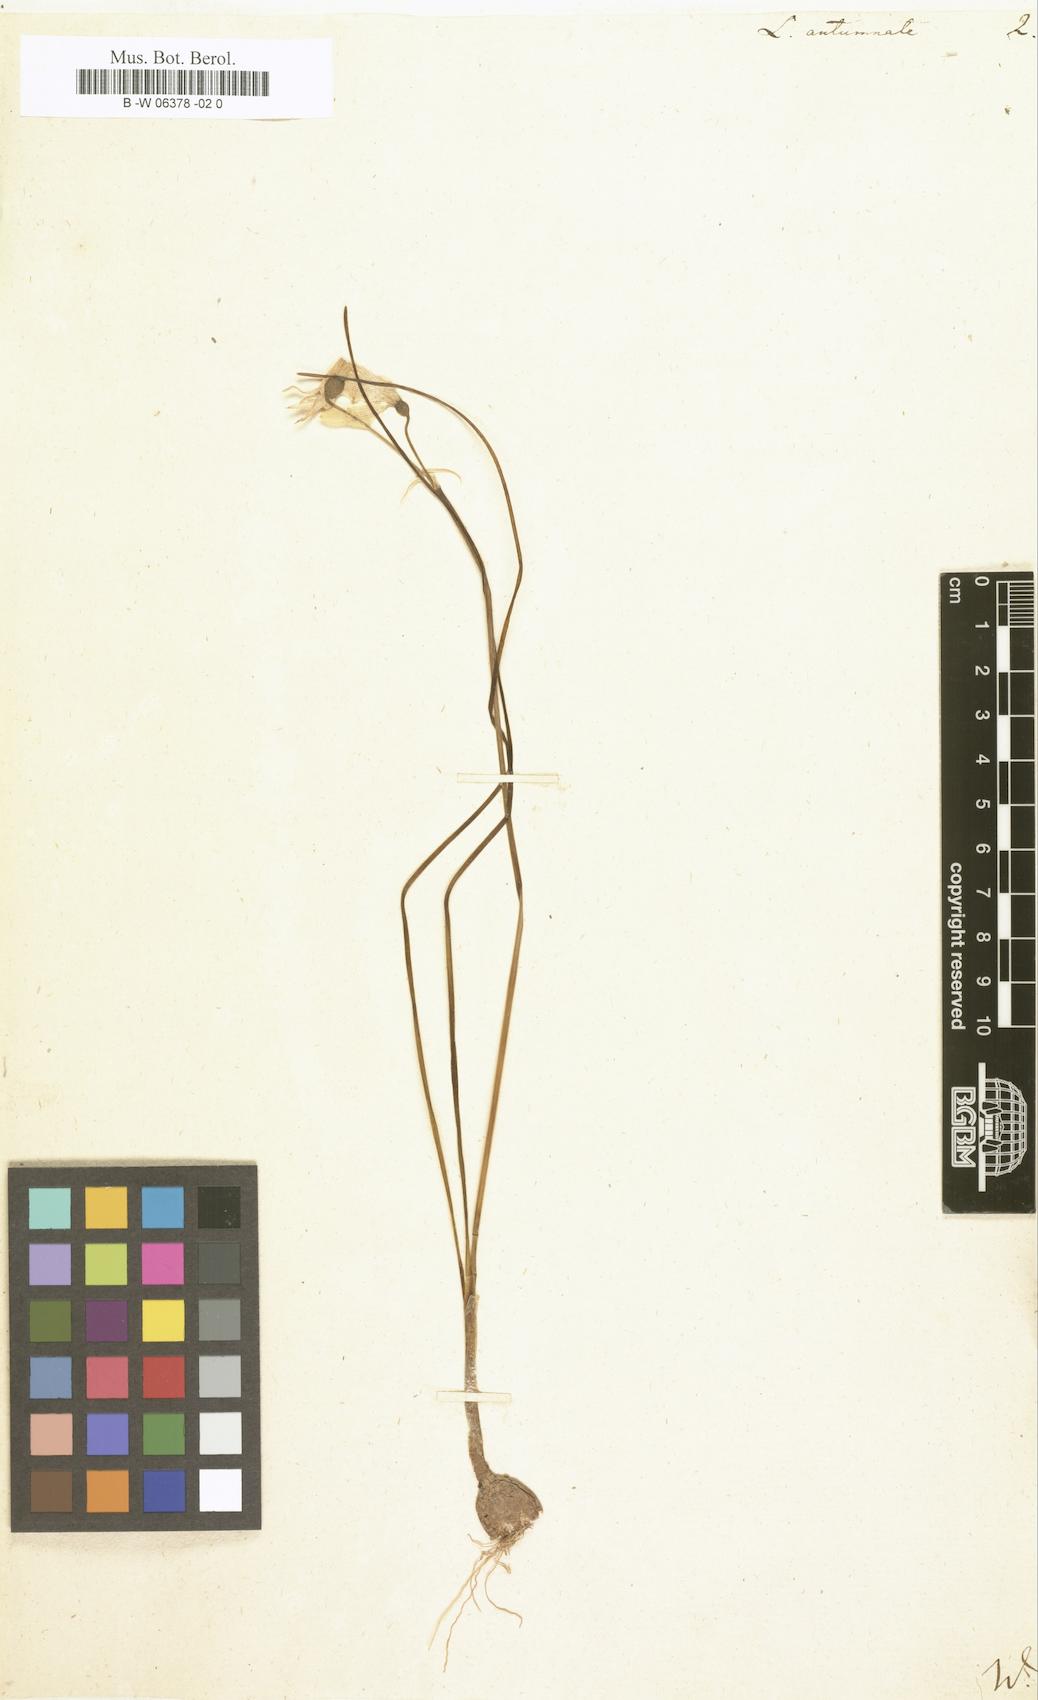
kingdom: Plantae
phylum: Tracheophyta
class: Liliopsida
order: Asparagales
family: Amaryllidaceae
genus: Leucojum
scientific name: Leucojum autumnale
